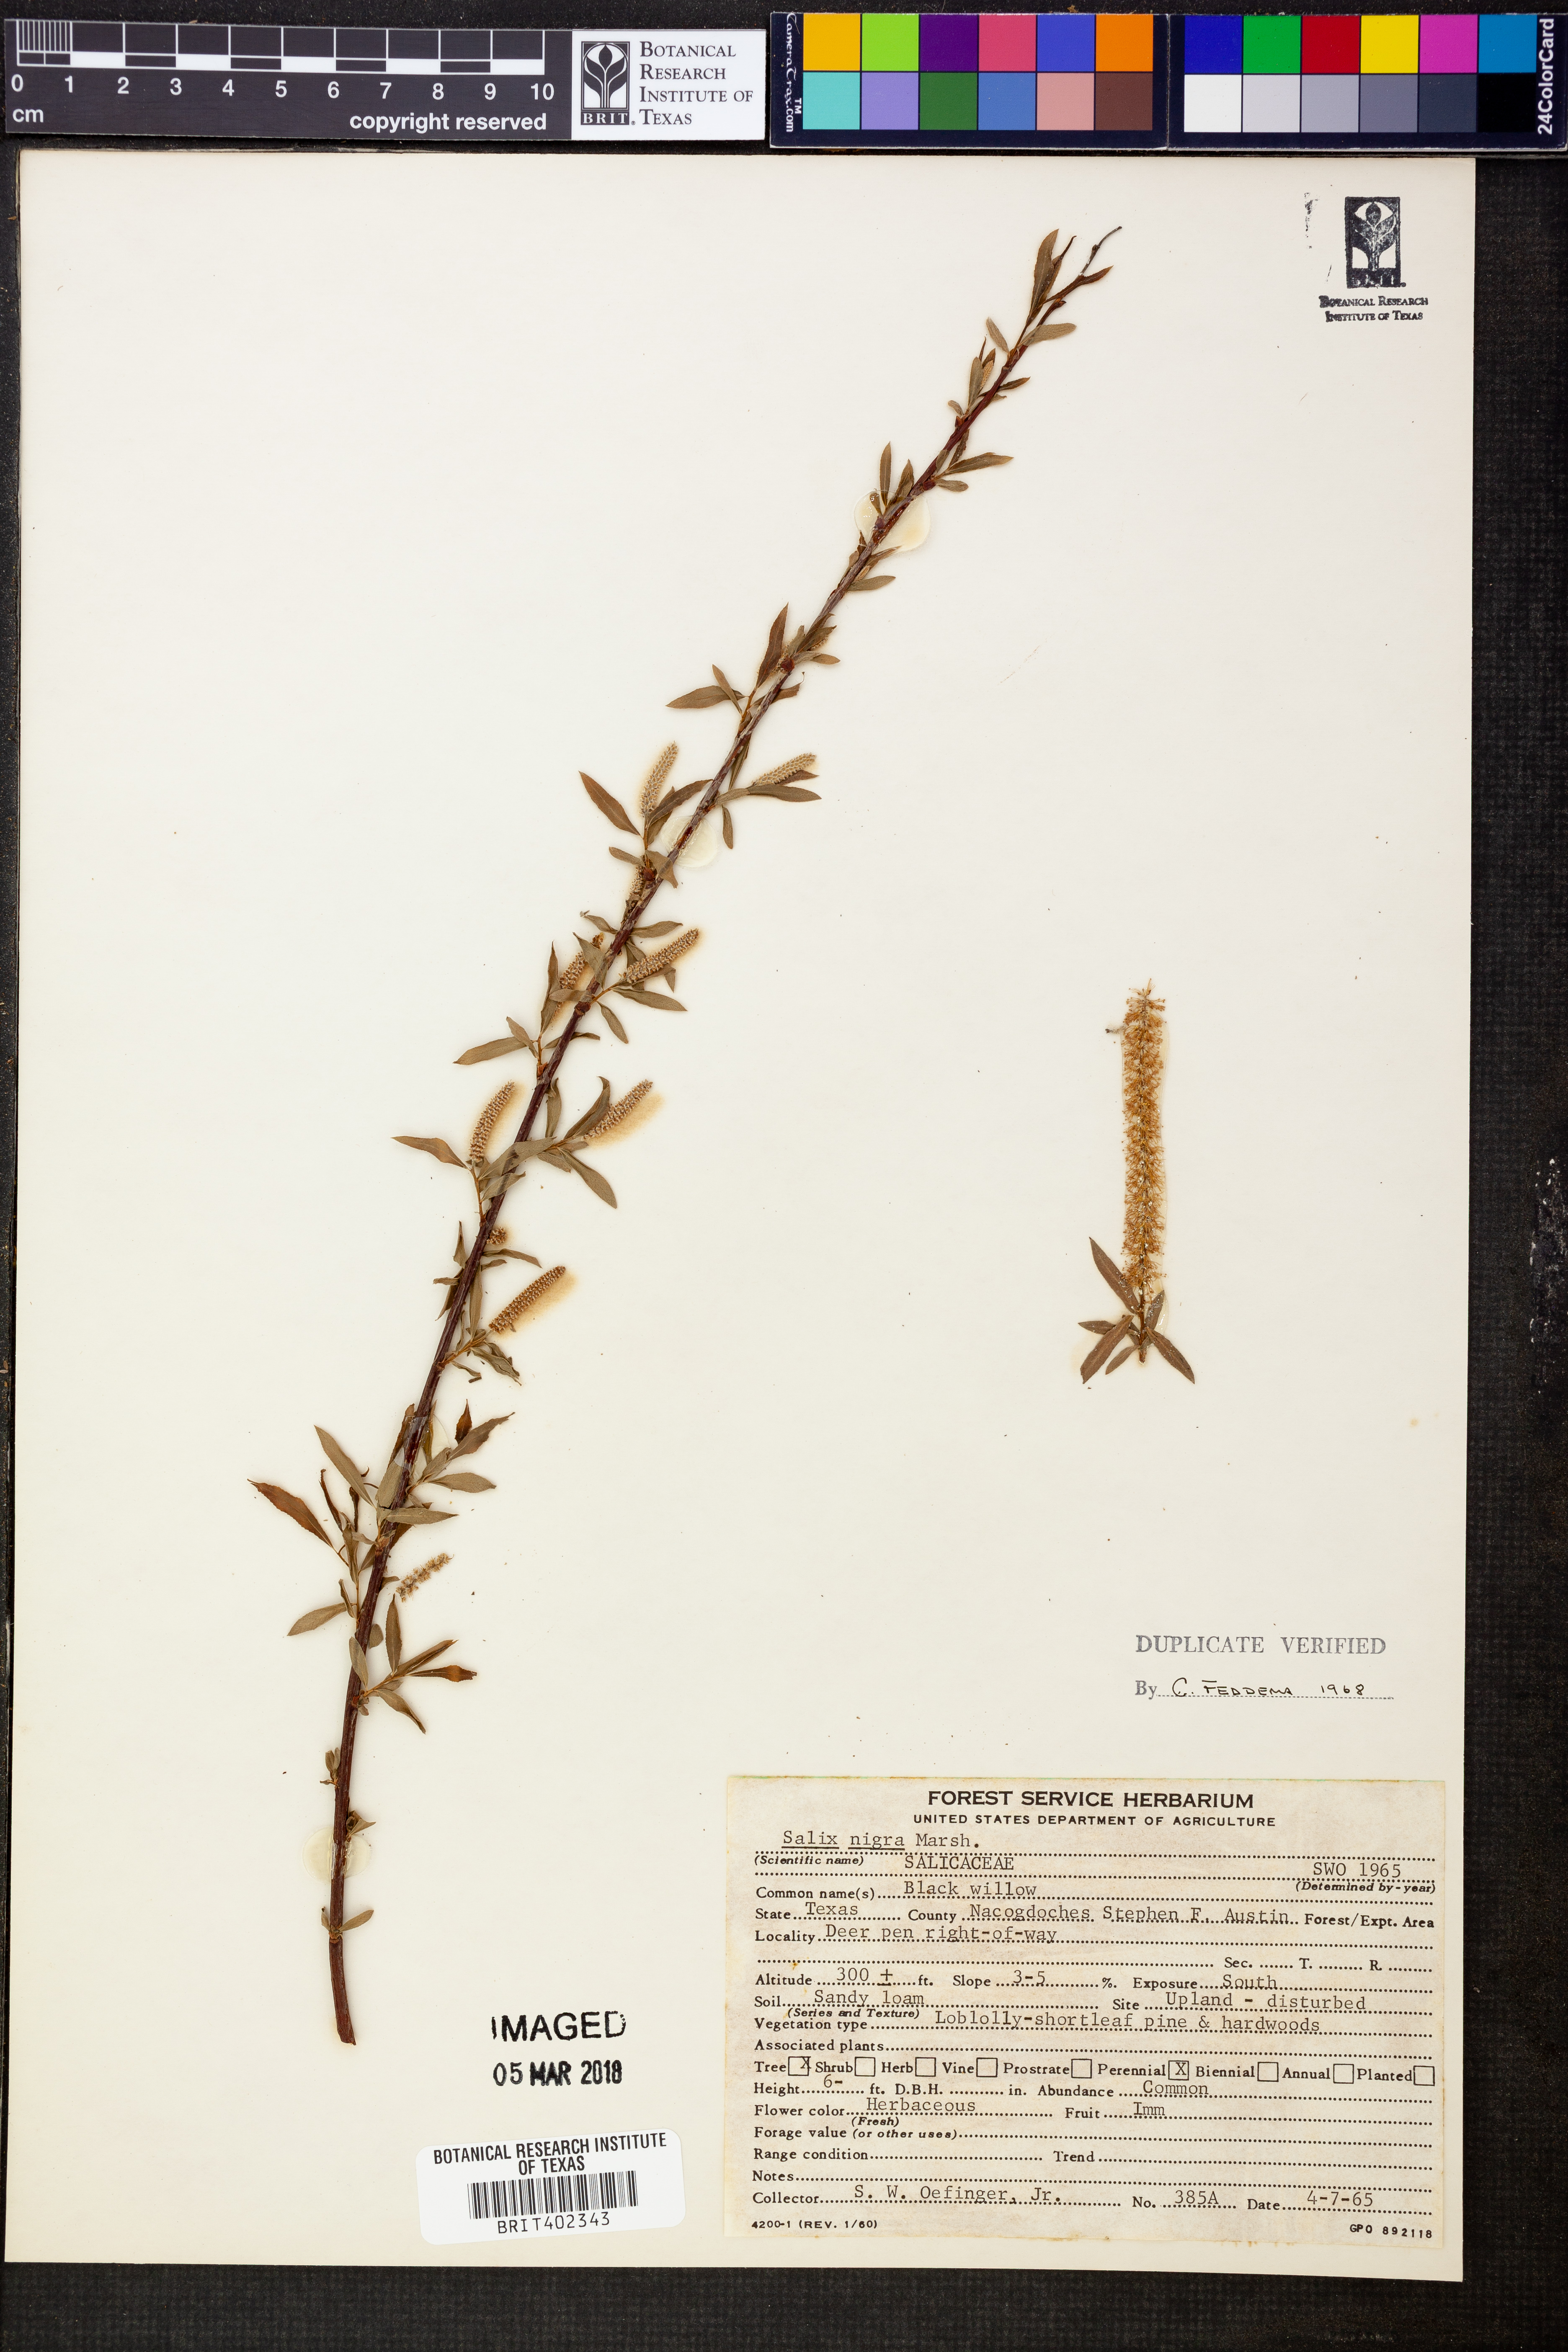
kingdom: Plantae
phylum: Tracheophyta
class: Magnoliopsida
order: Malpighiales
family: Salicaceae
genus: Salix
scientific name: Salix nigra
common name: Black willow
